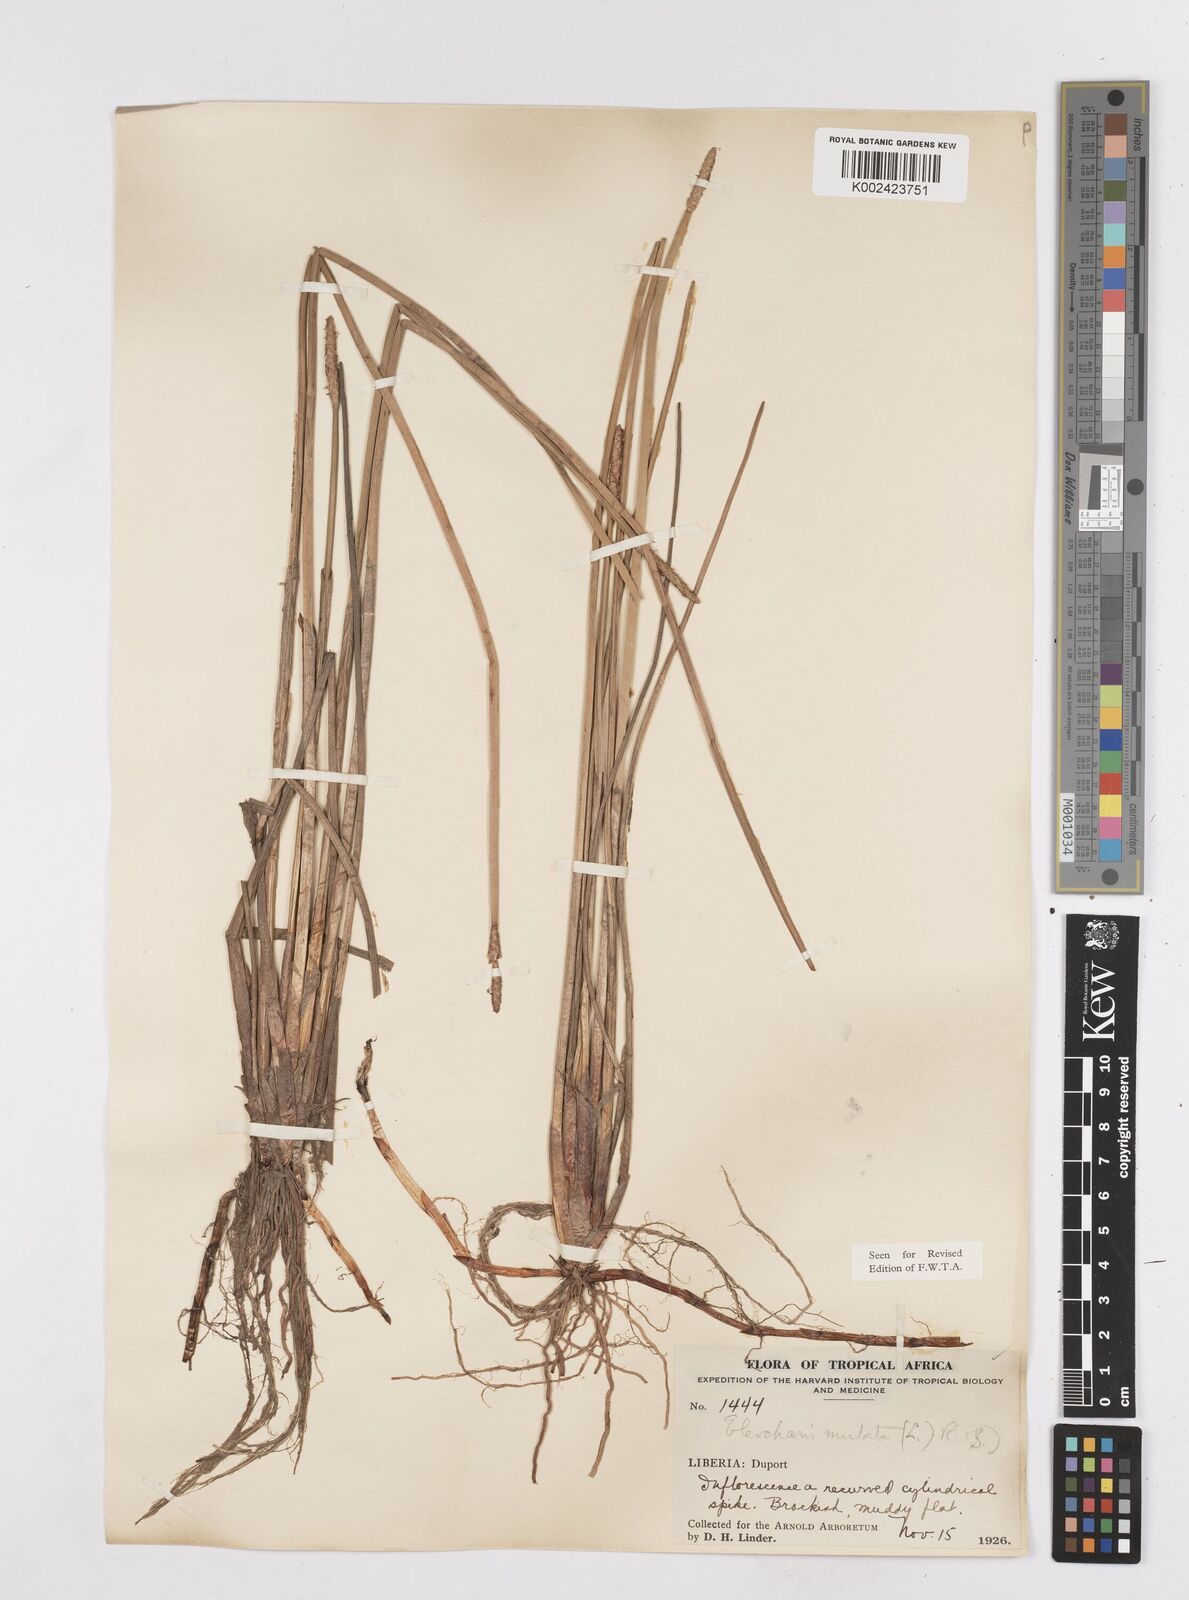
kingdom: Plantae
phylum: Tracheophyta
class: Liliopsida
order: Poales
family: Cyperaceae
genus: Eleocharis
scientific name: Eleocharis mutata
